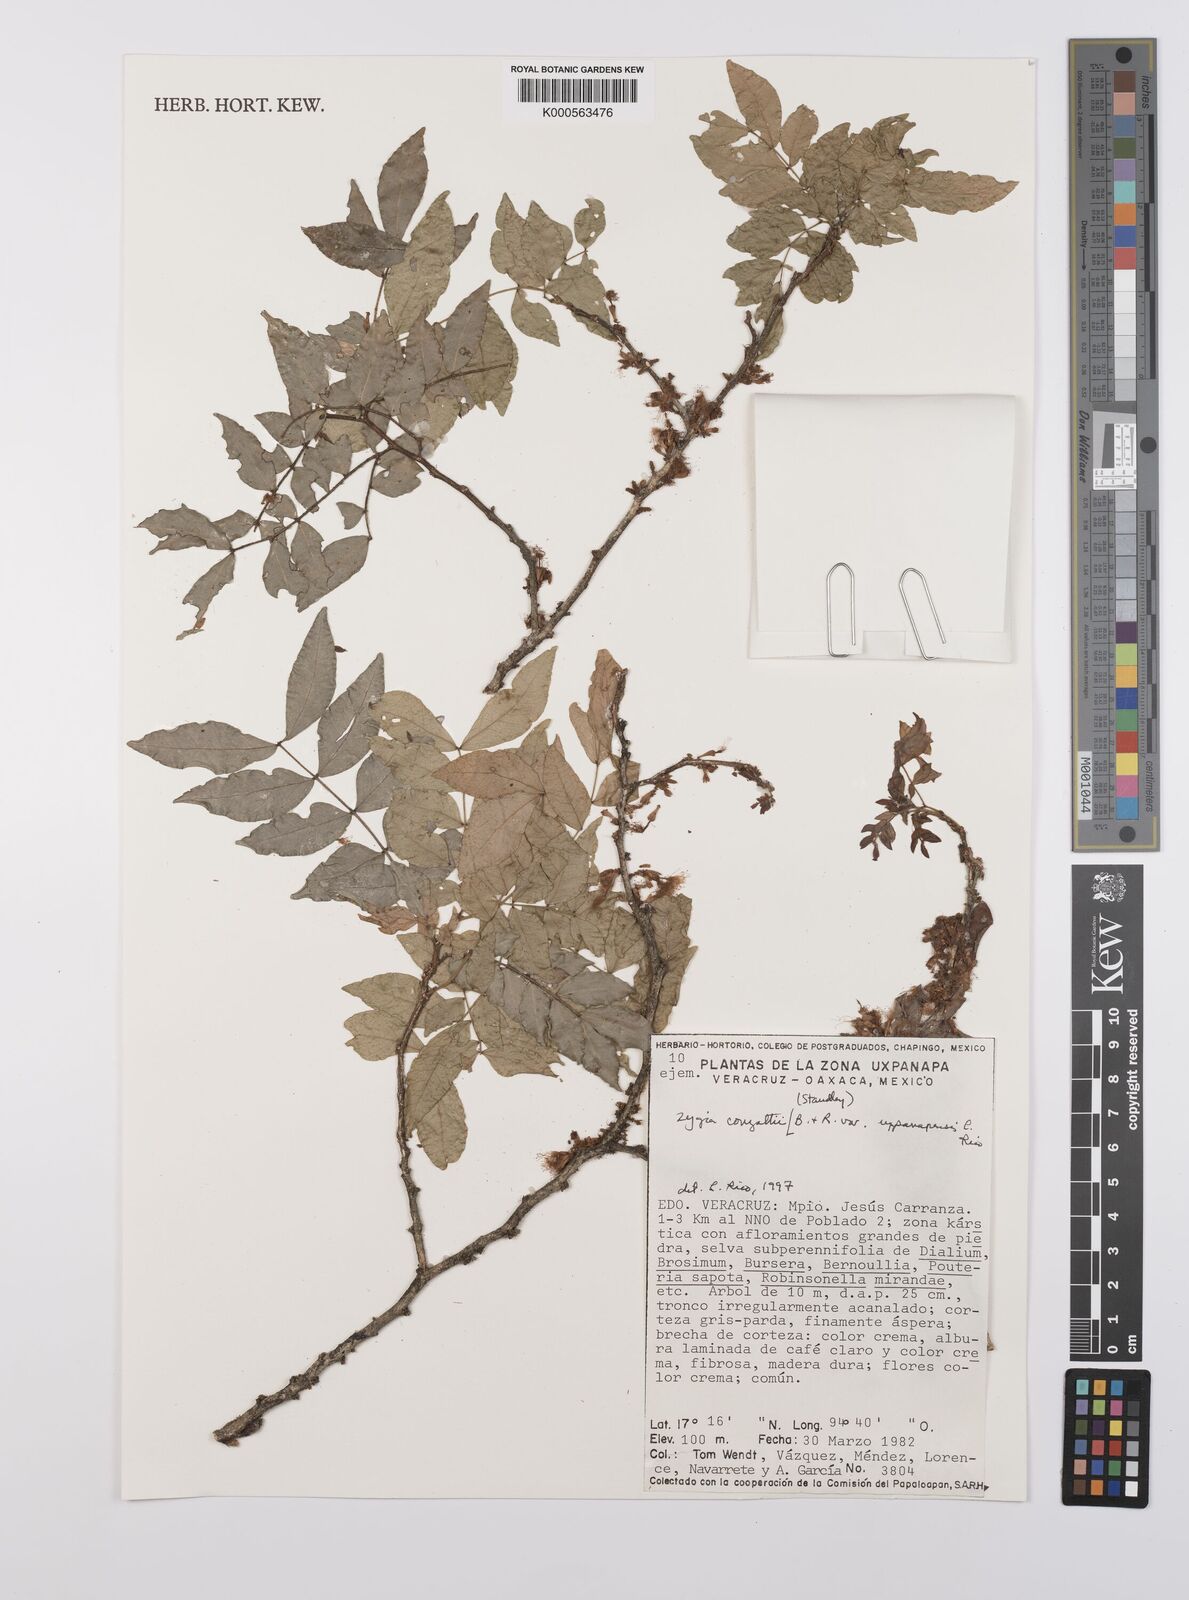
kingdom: Plantae
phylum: Tracheophyta
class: Magnoliopsida
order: Fabales
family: Fabaceae
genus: Zygia
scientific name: Zygia conzattii
